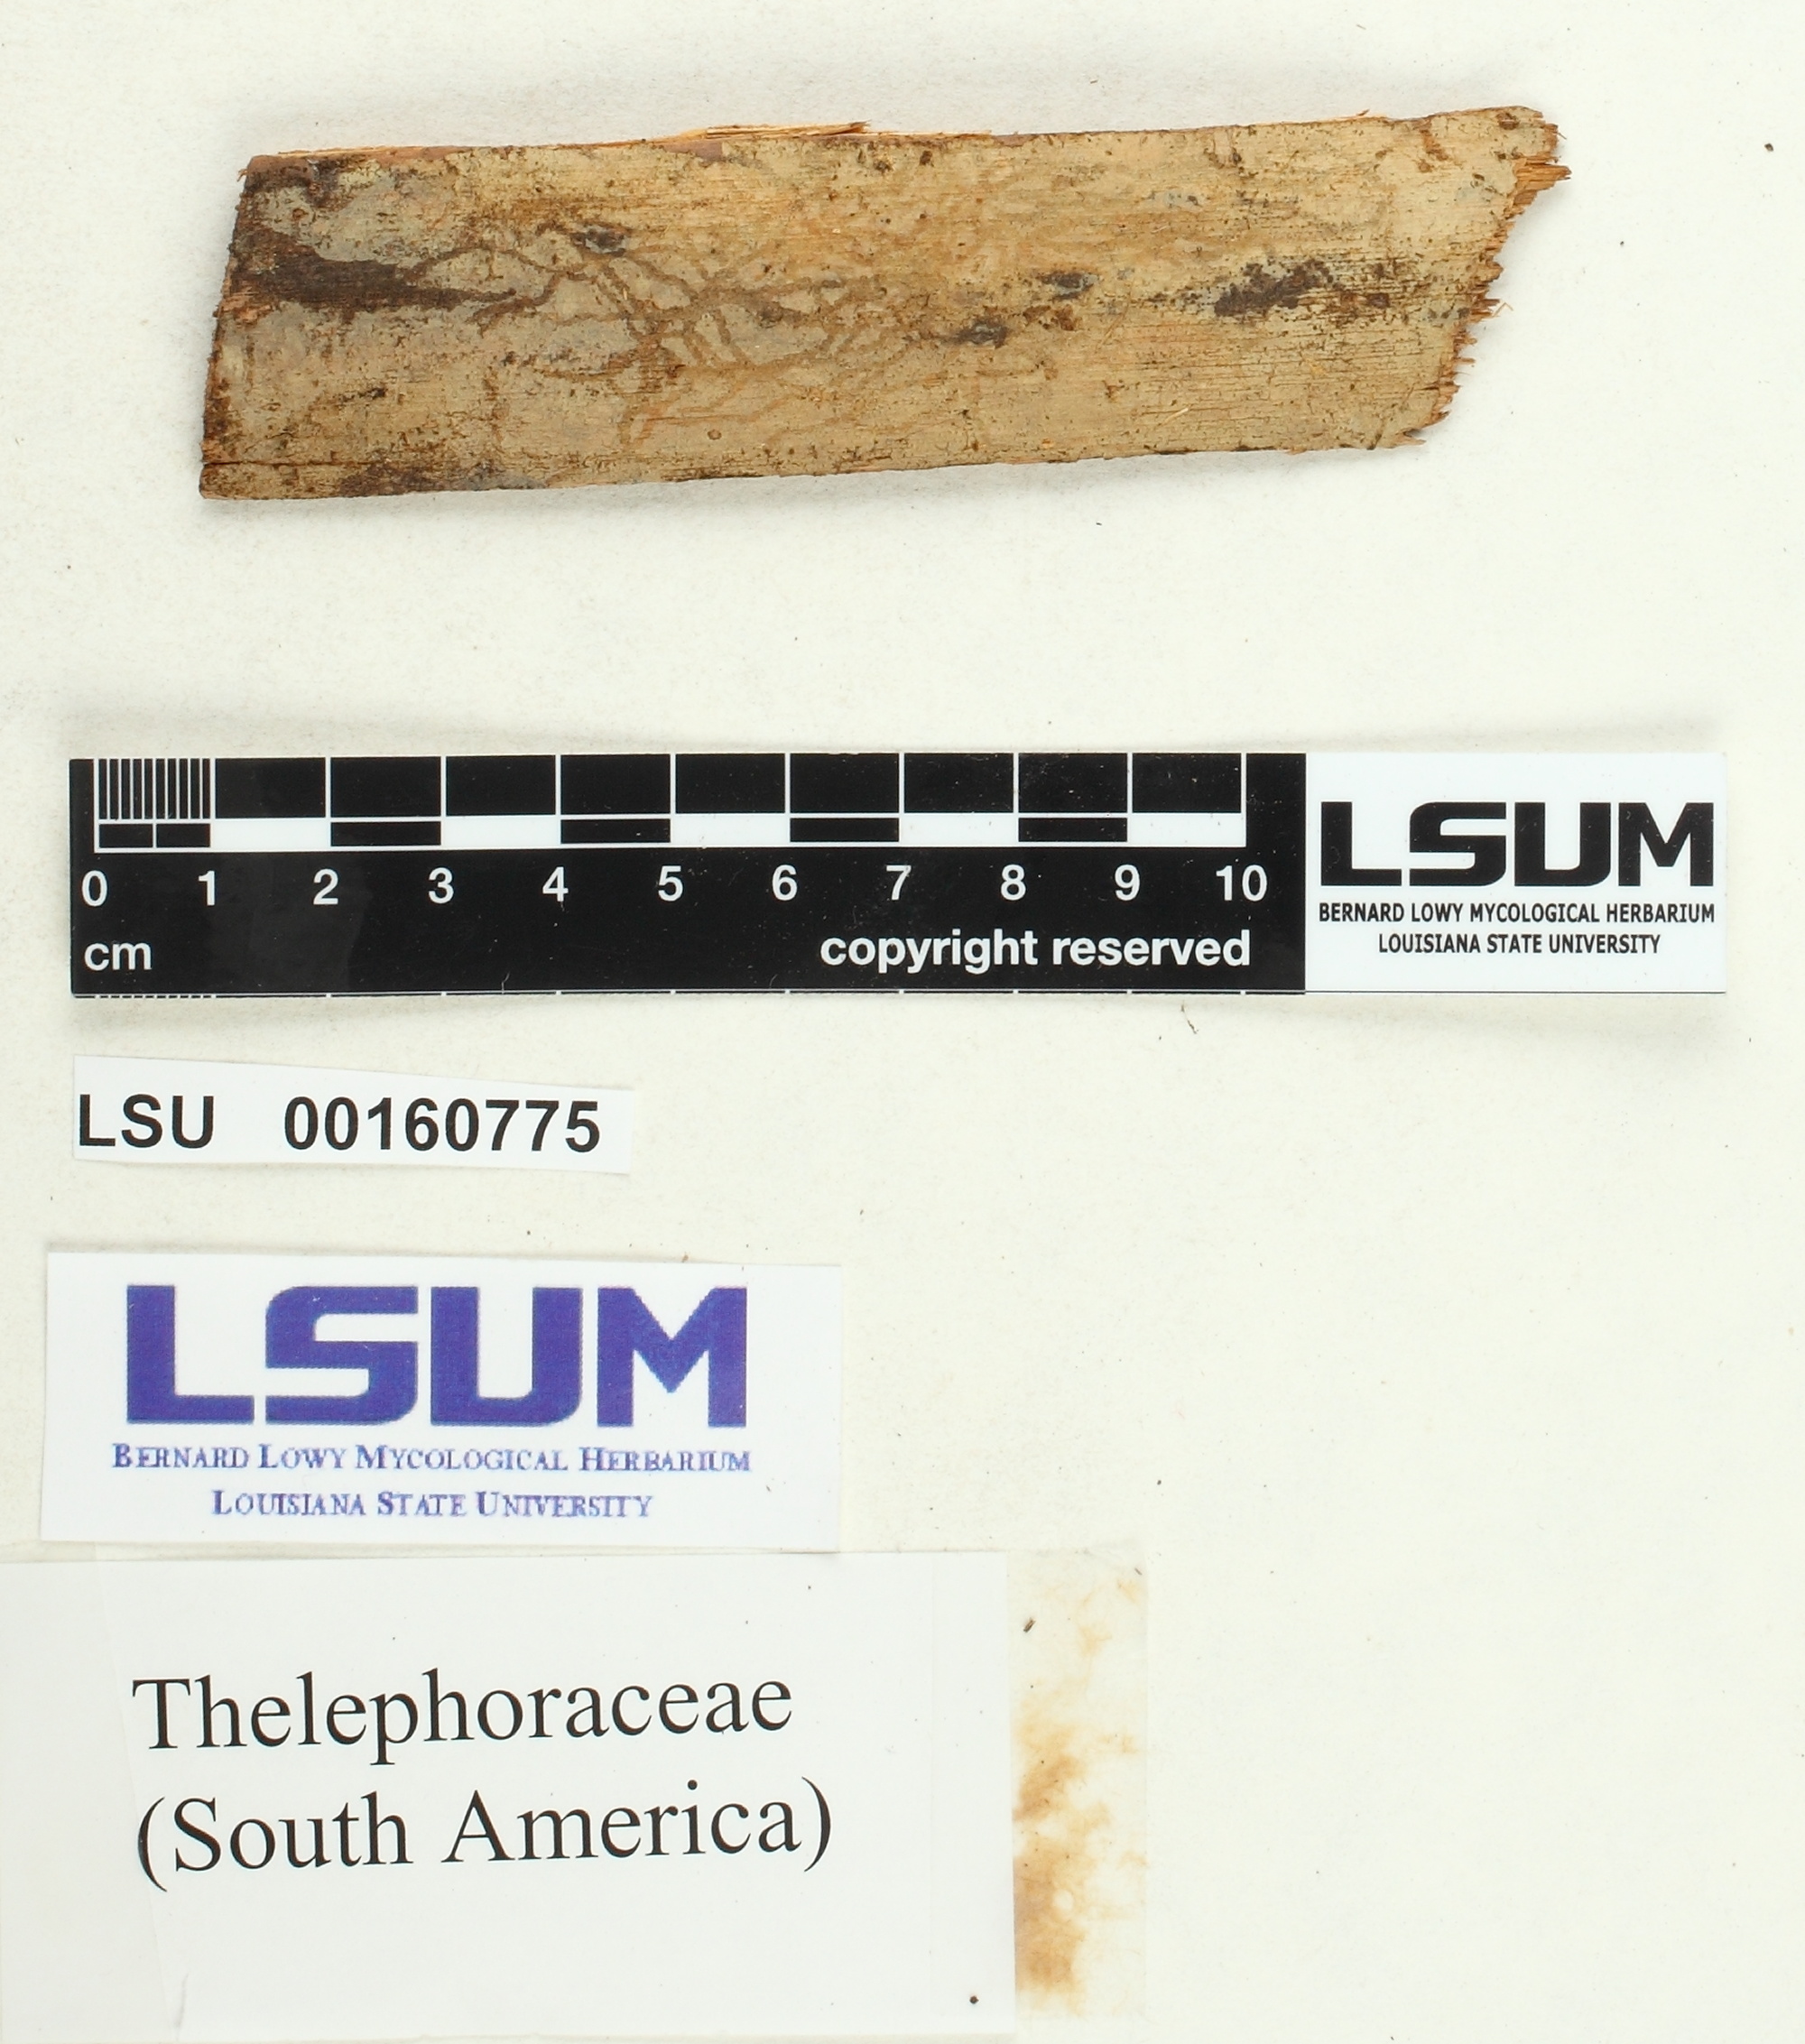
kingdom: Fungi
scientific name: Fungi
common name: Fungi
